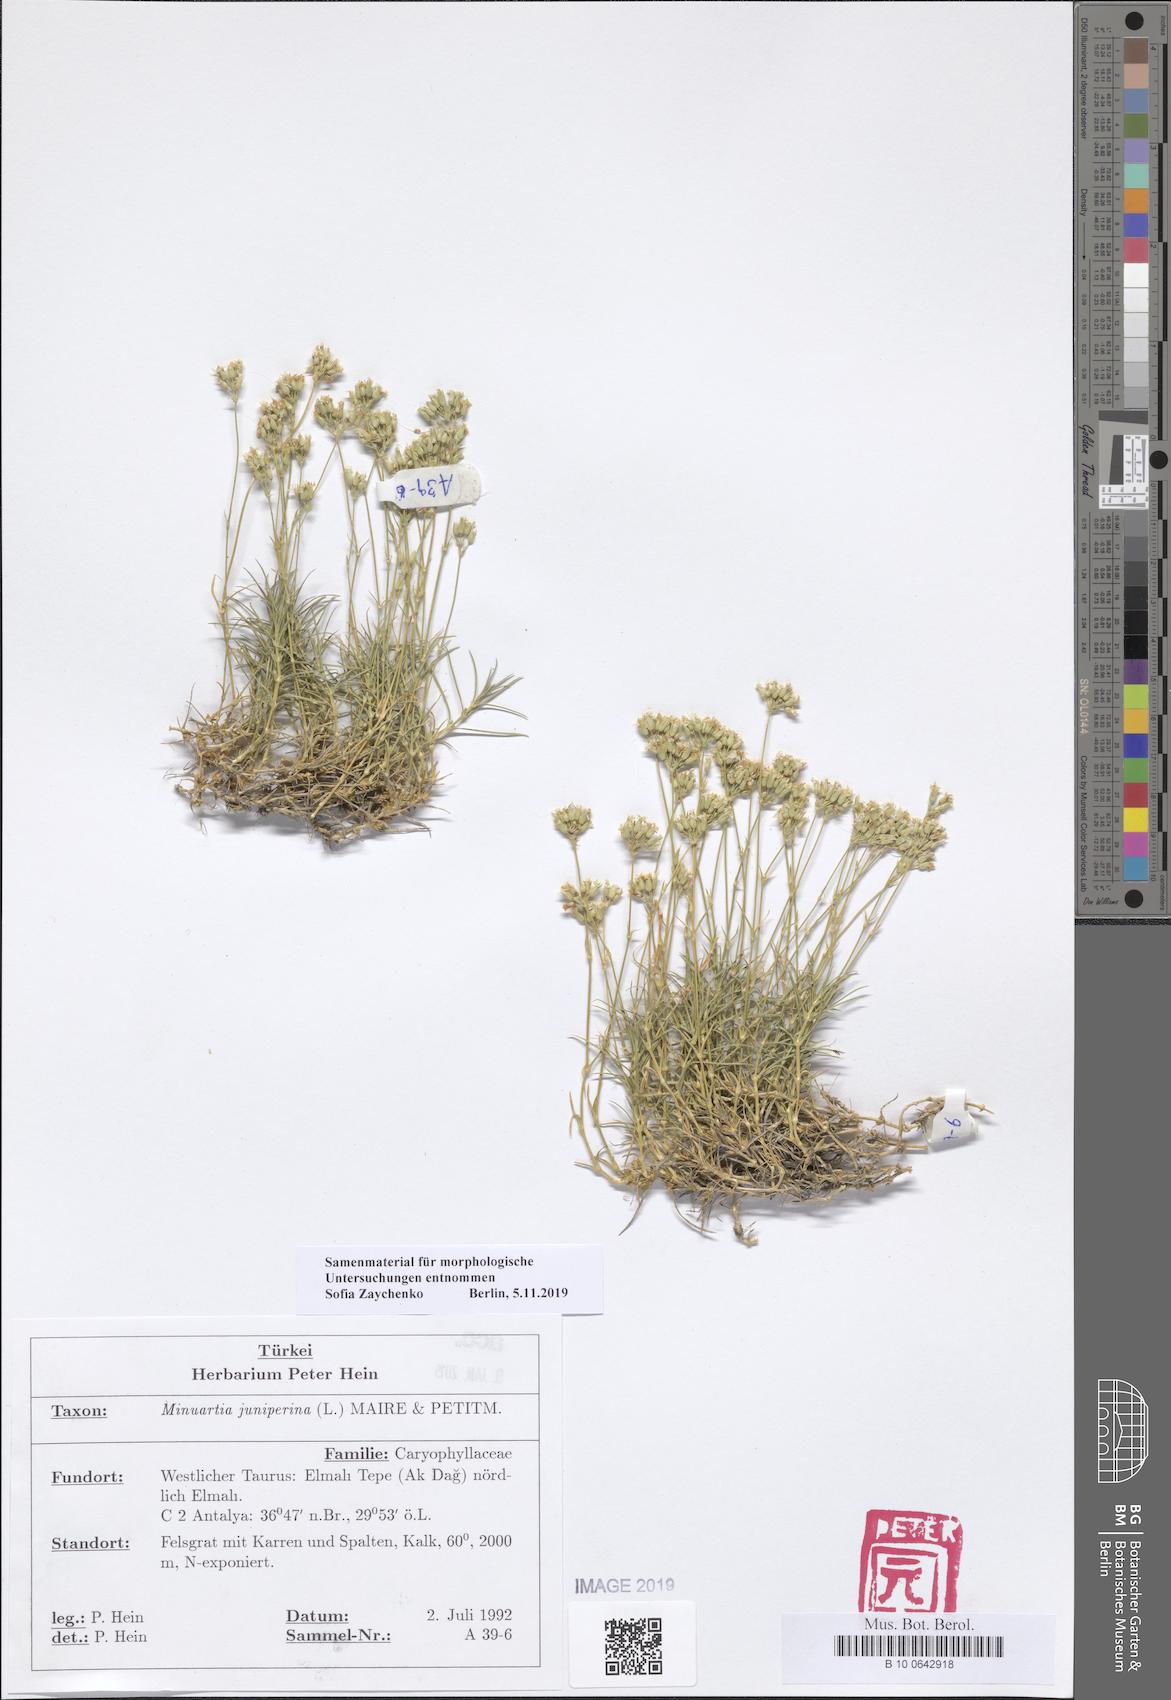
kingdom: Plantae
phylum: Tracheophyta
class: Magnoliopsida
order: Caryophyllales
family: Caryophyllaceae
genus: Sabulina
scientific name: Sabulina juniperina
